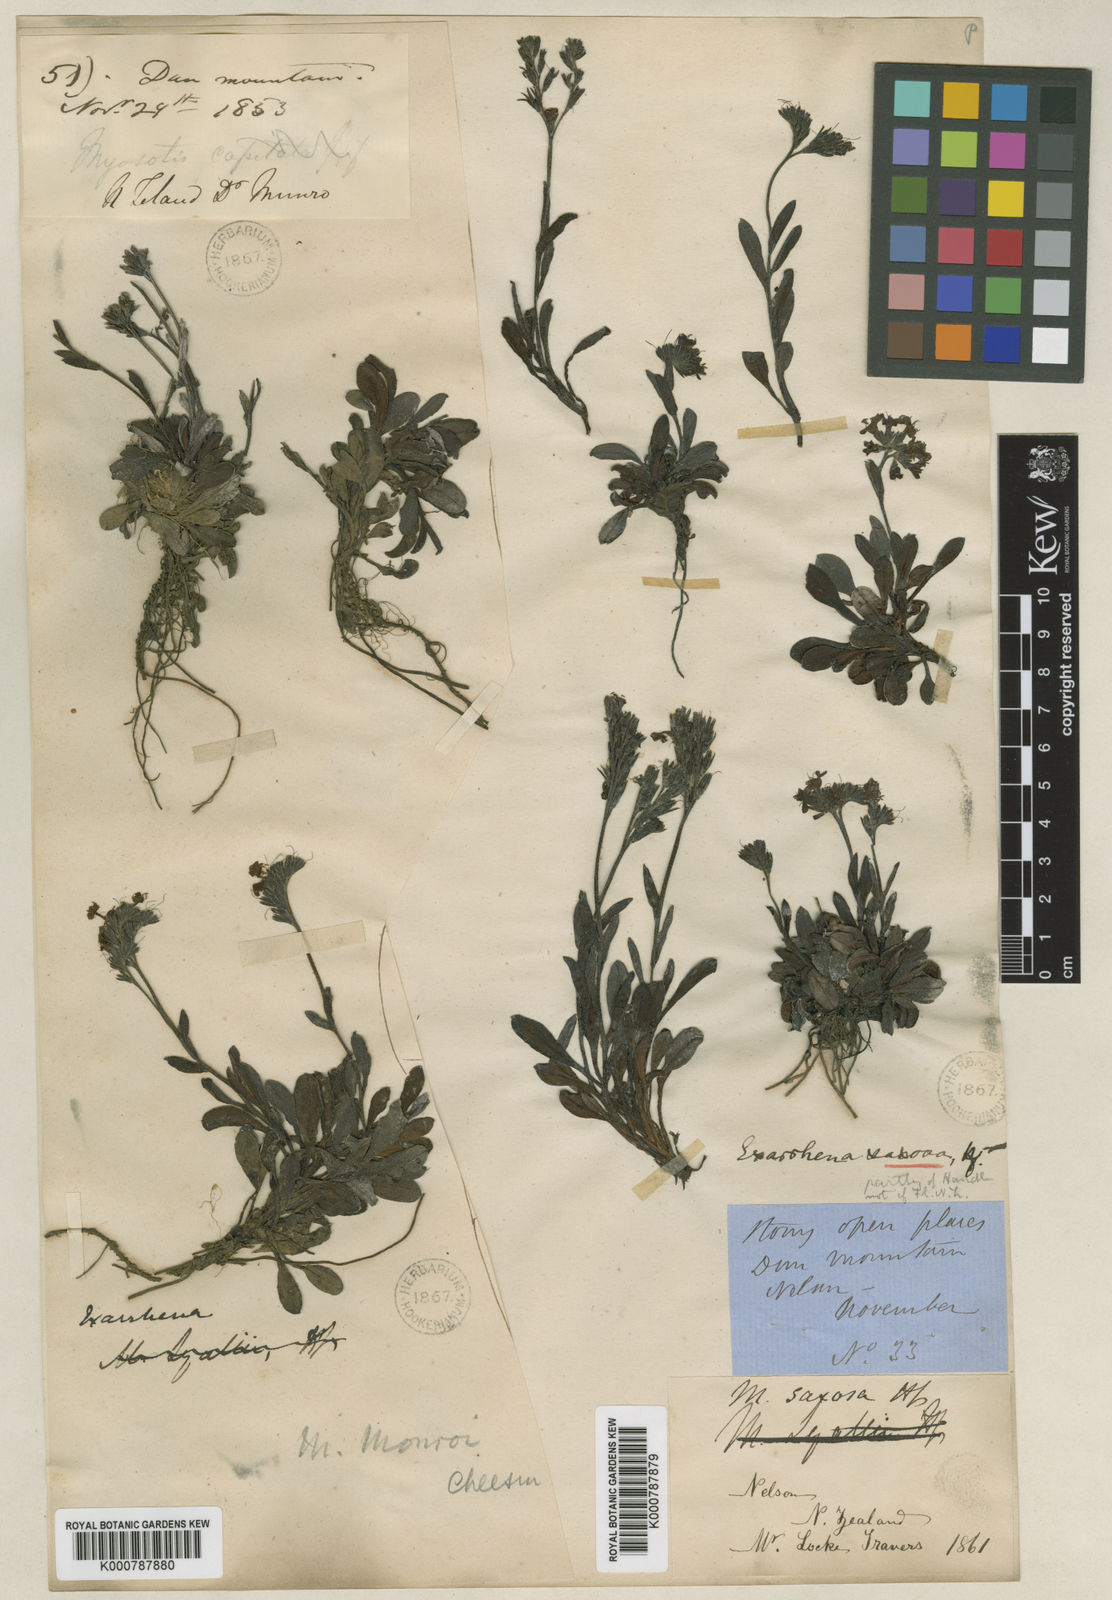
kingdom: Plantae
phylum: Tracheophyta
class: Magnoliopsida
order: Boraginales
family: Boraginaceae
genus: Myosotis
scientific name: Myosotis monroi
